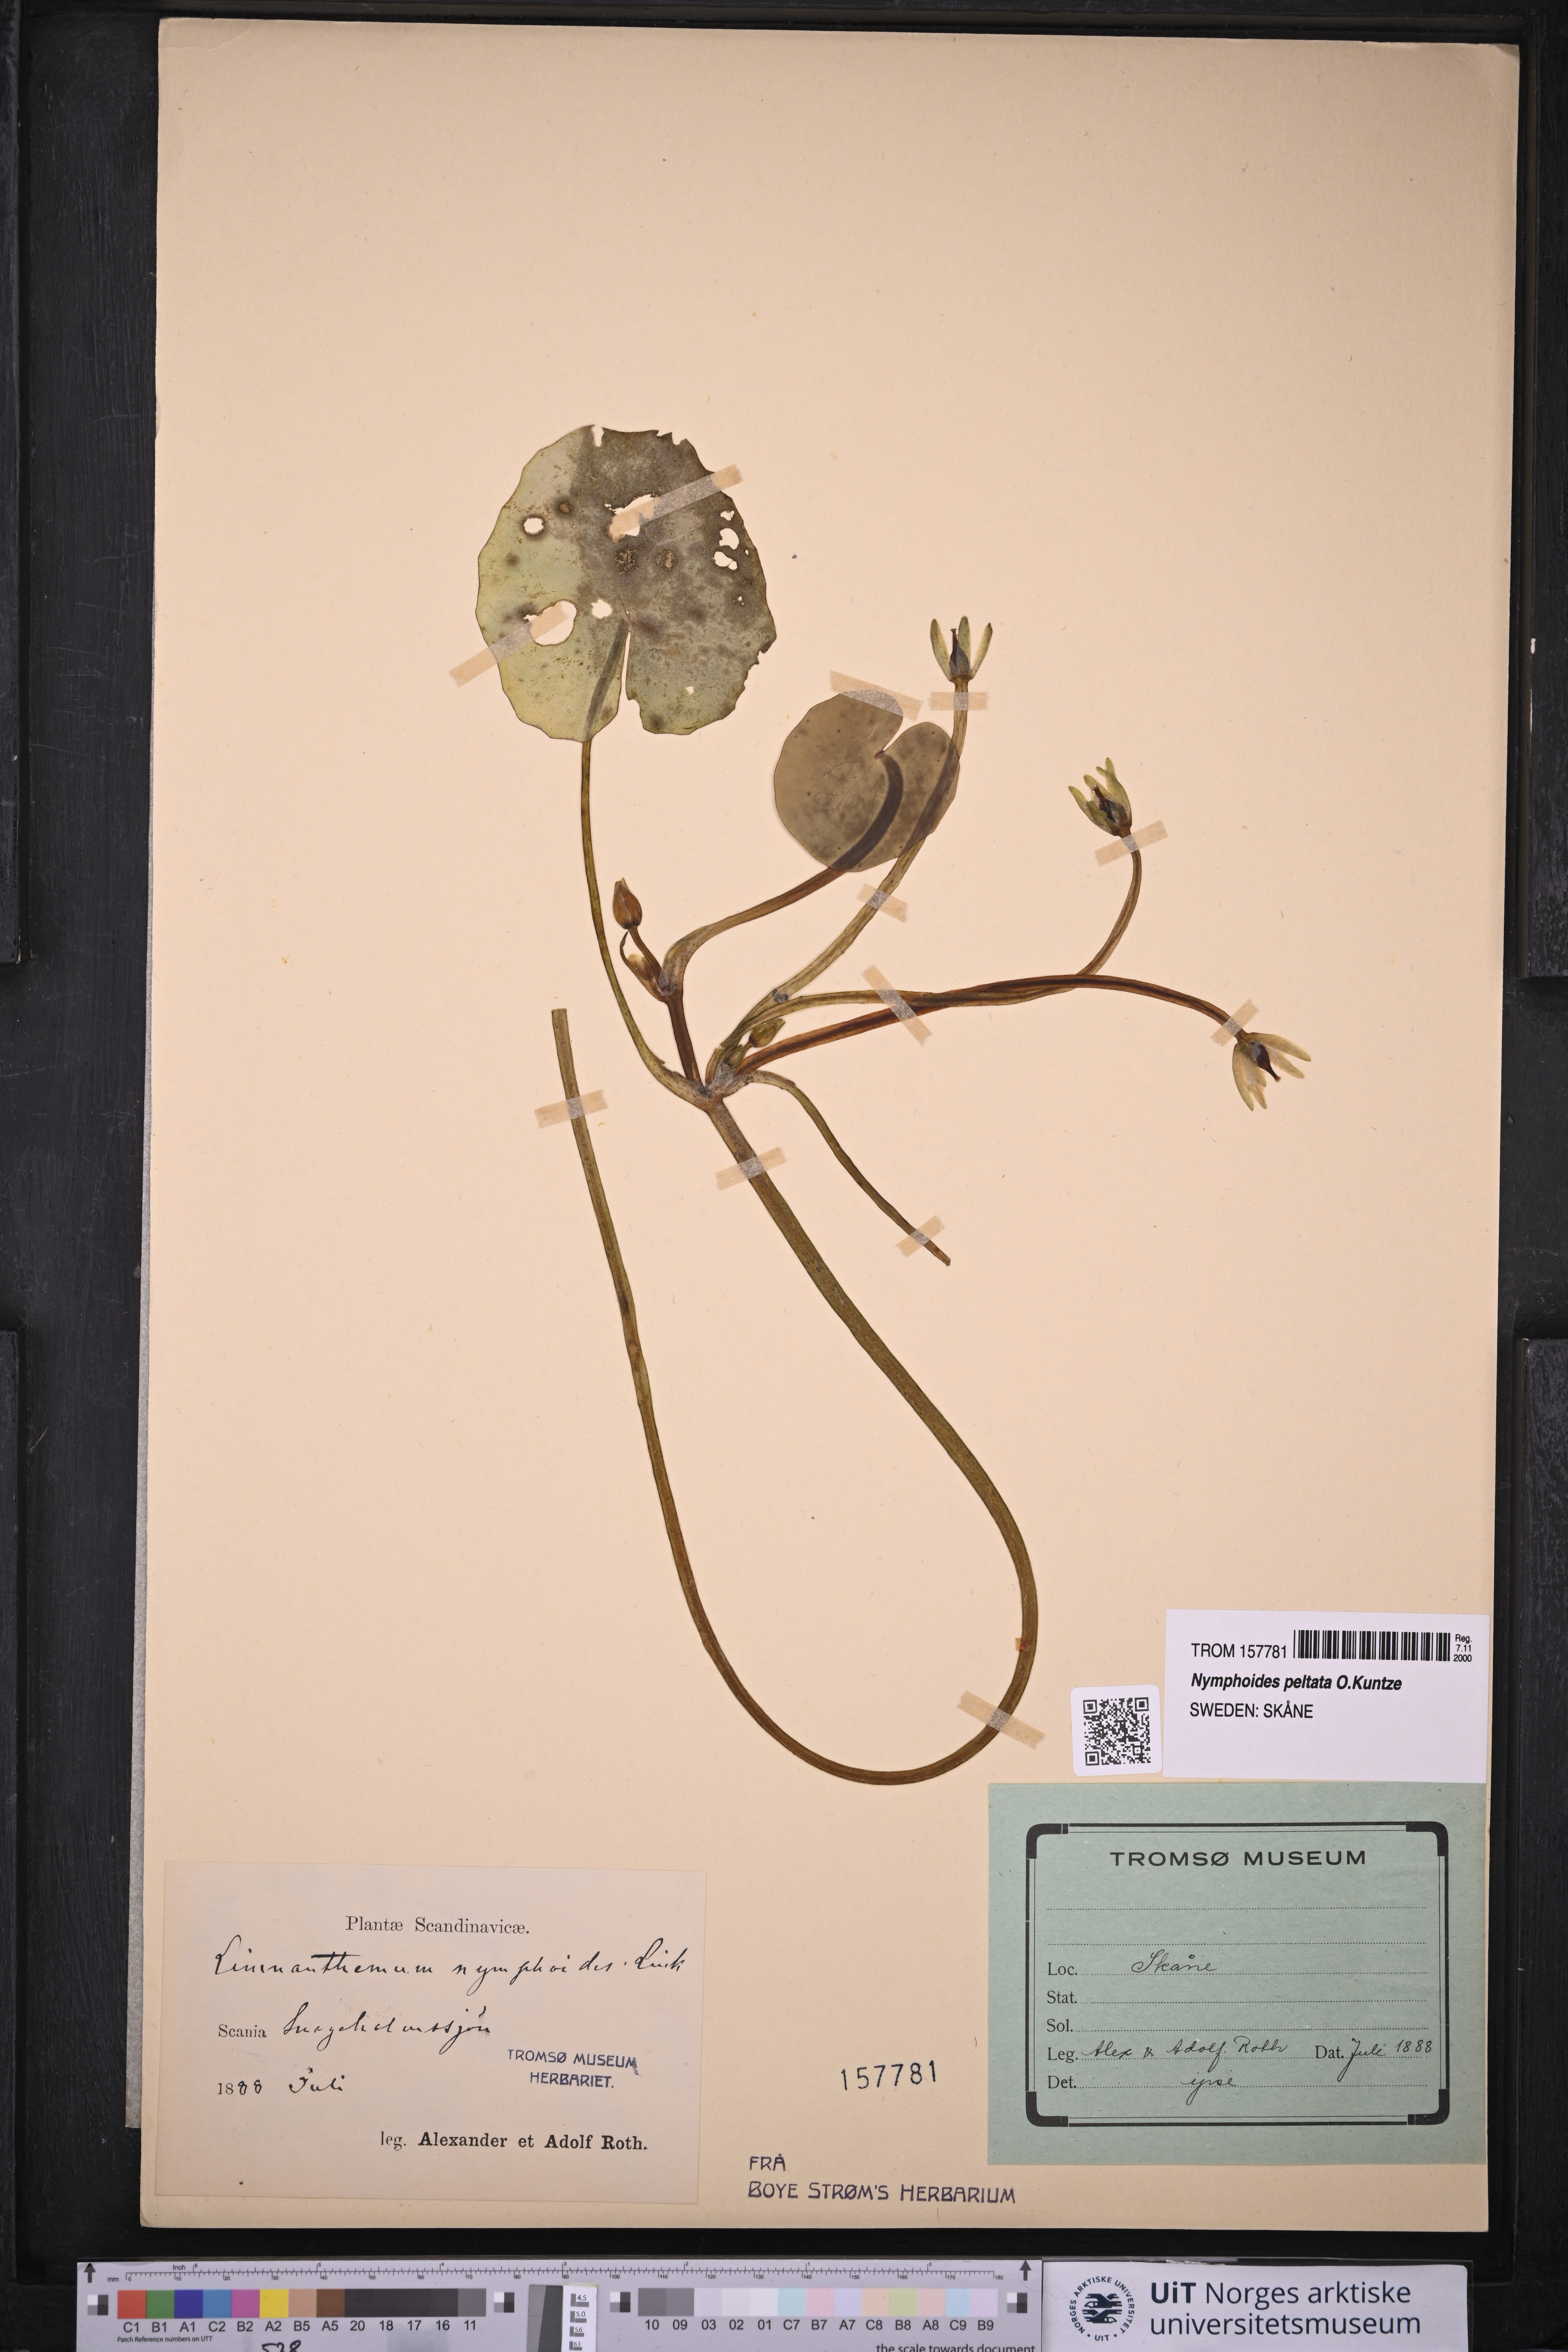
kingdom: Plantae
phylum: Tracheophyta
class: Magnoliopsida
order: Asterales
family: Menyanthaceae
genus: Nymphoides
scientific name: Nymphoides peltata
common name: Fringed water-lily
